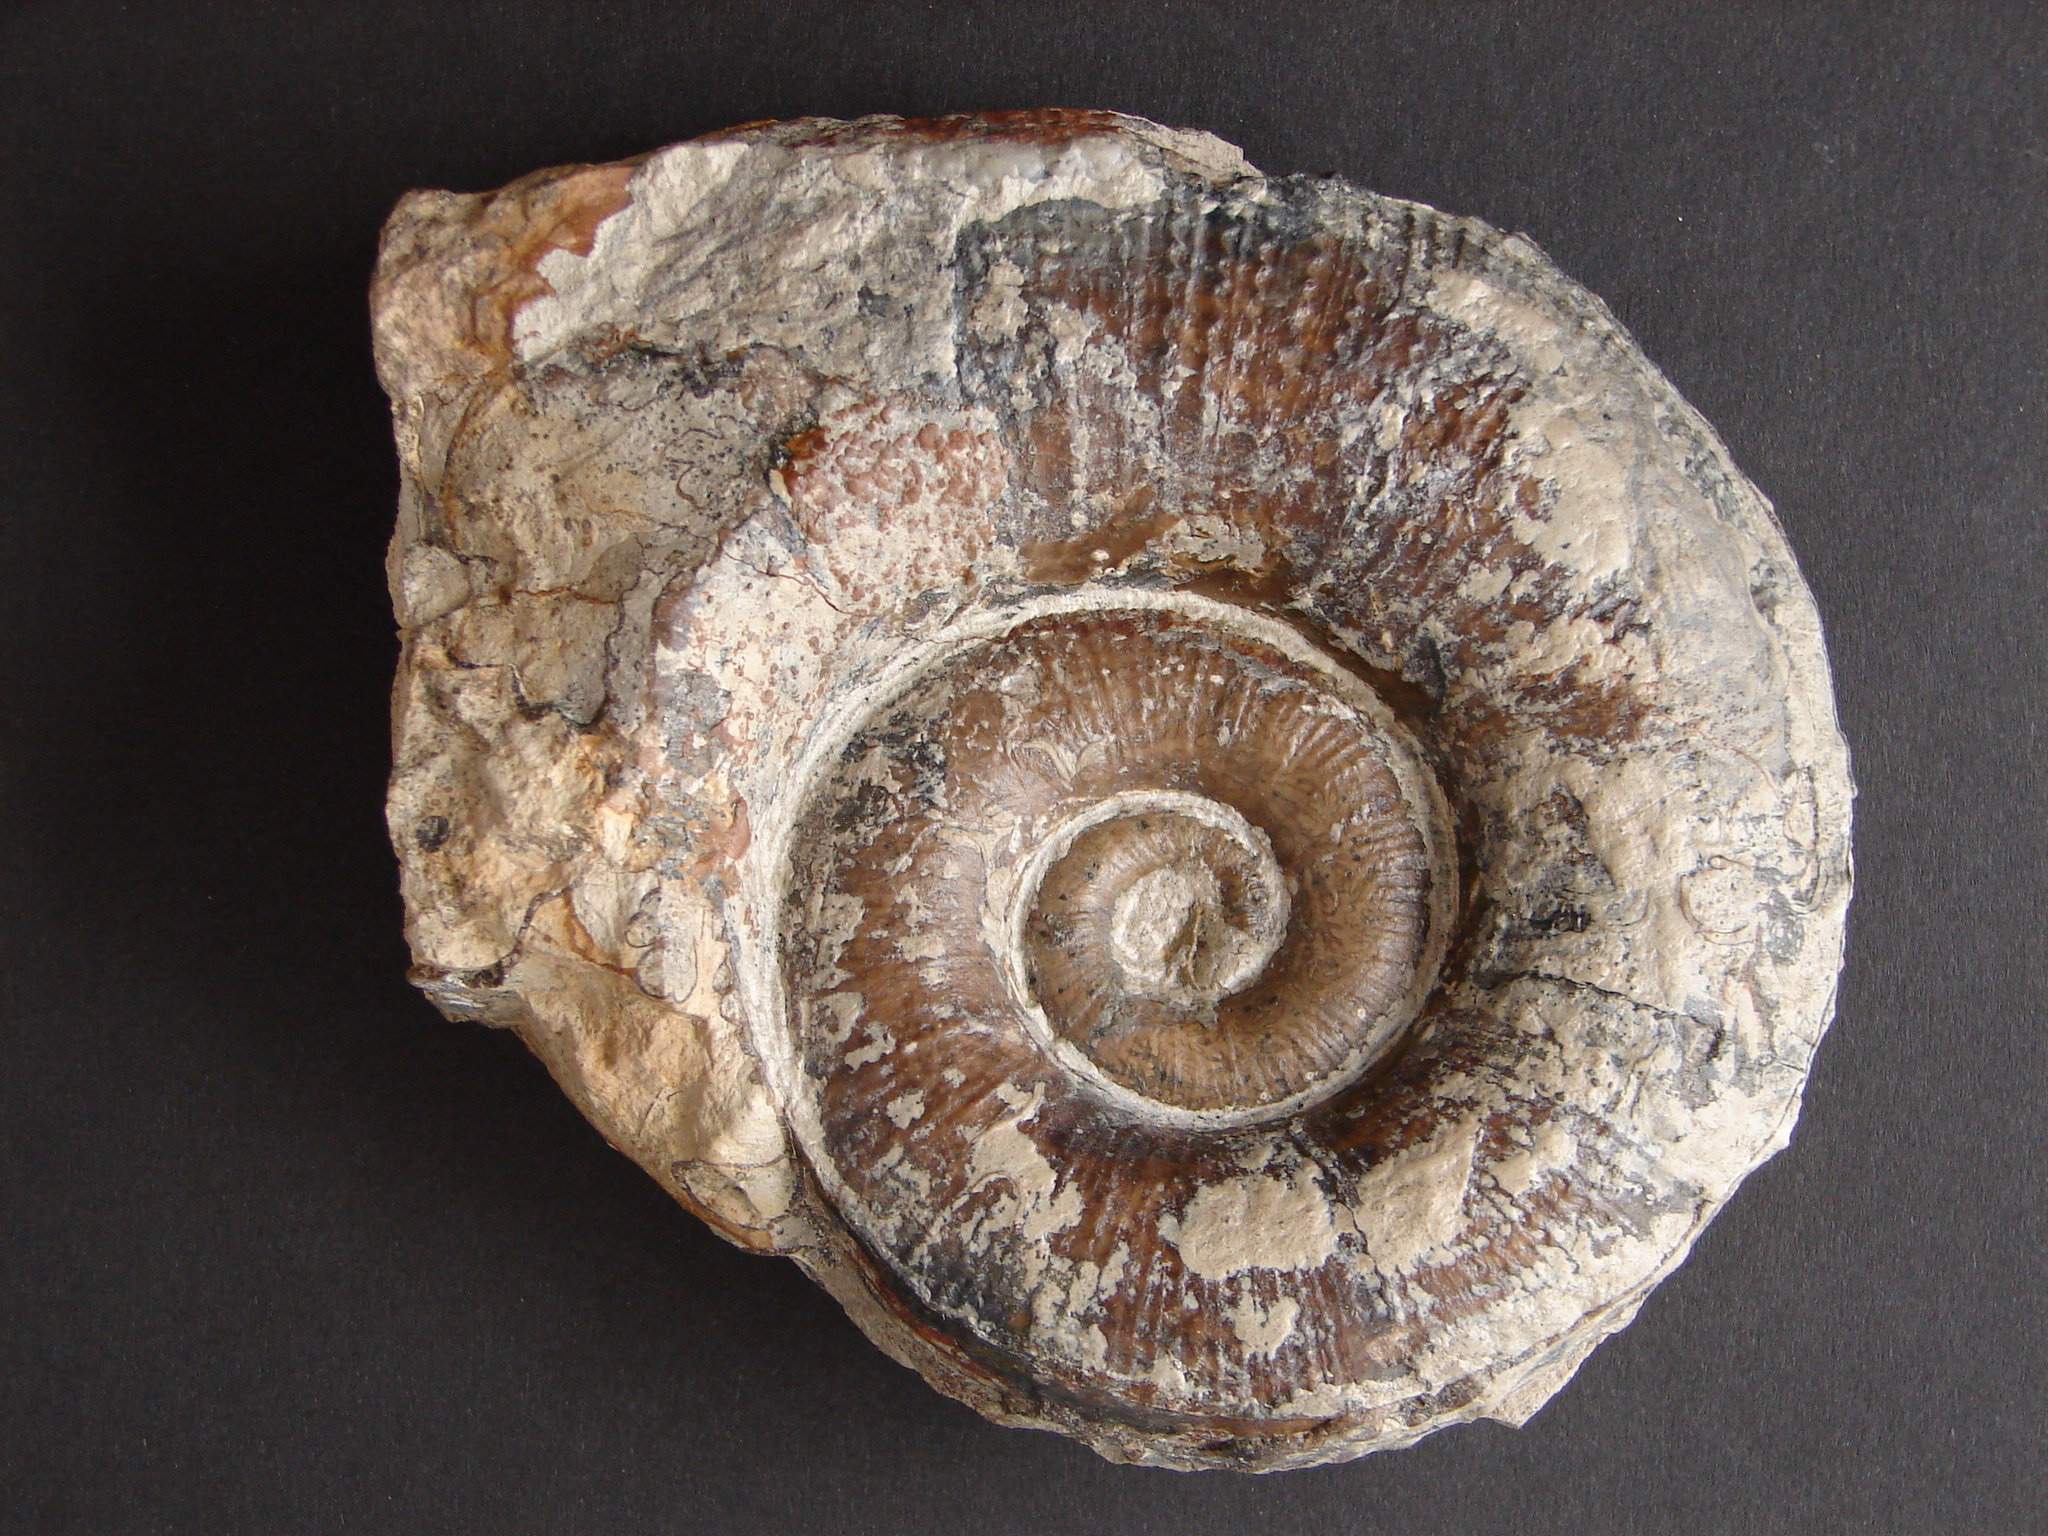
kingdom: Animalia
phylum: Mollusca
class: Cephalopoda
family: Lytoceratidae
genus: Lytoceras
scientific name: Lytoceras fimbriatum
